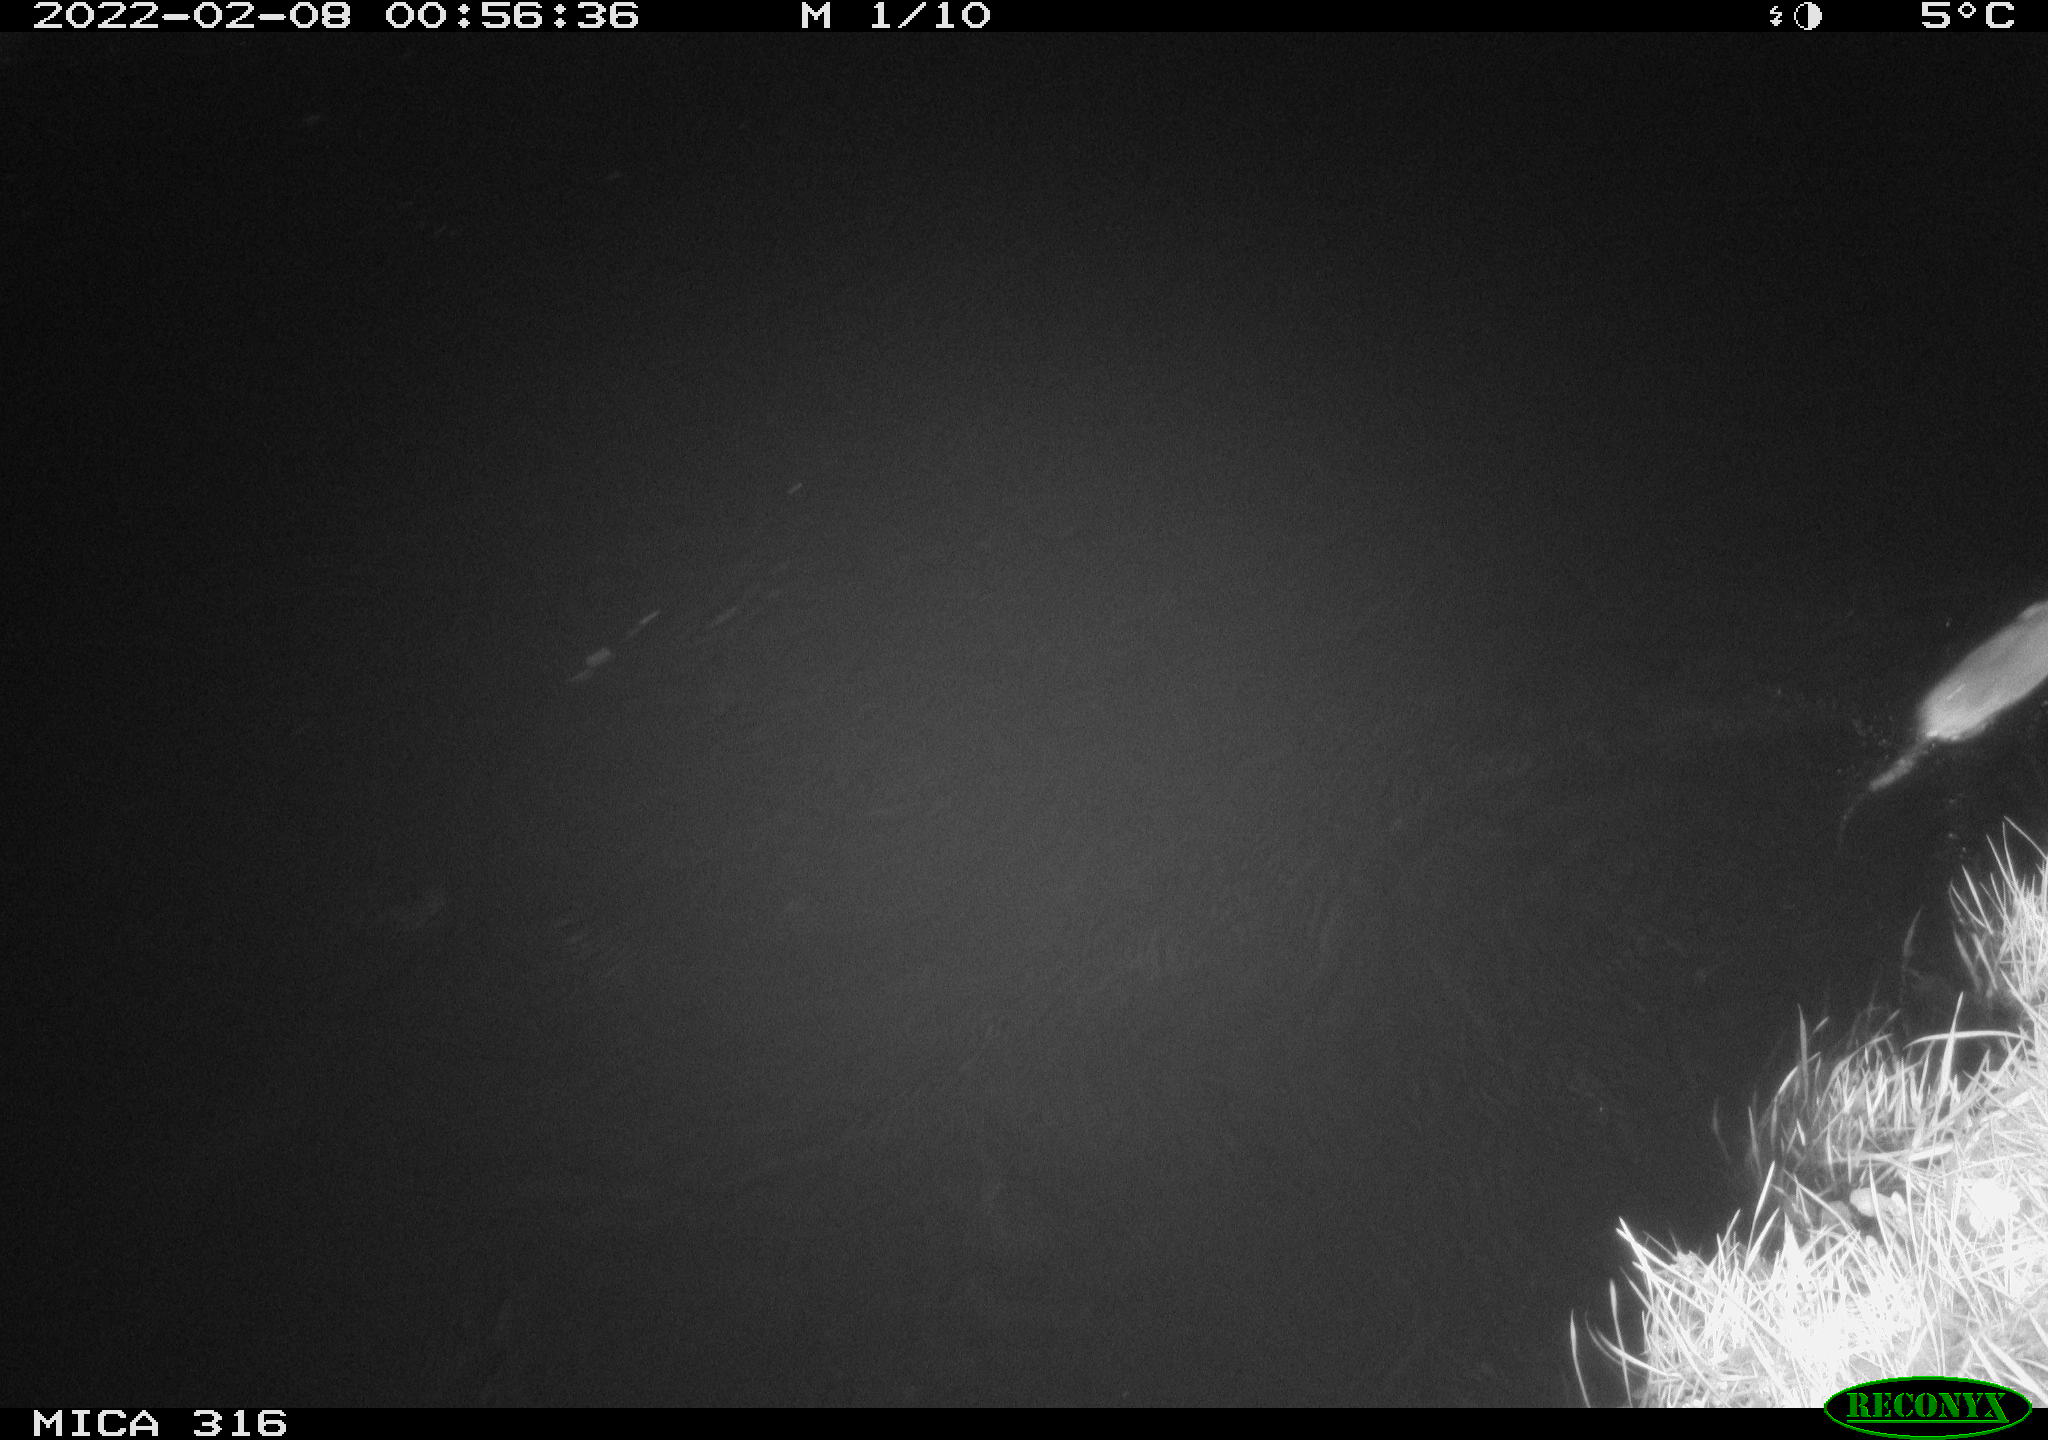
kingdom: Animalia
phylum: Chordata
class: Mammalia
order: Rodentia
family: Muridae
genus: Rattus
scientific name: Rattus norvegicus
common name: Brown rat
